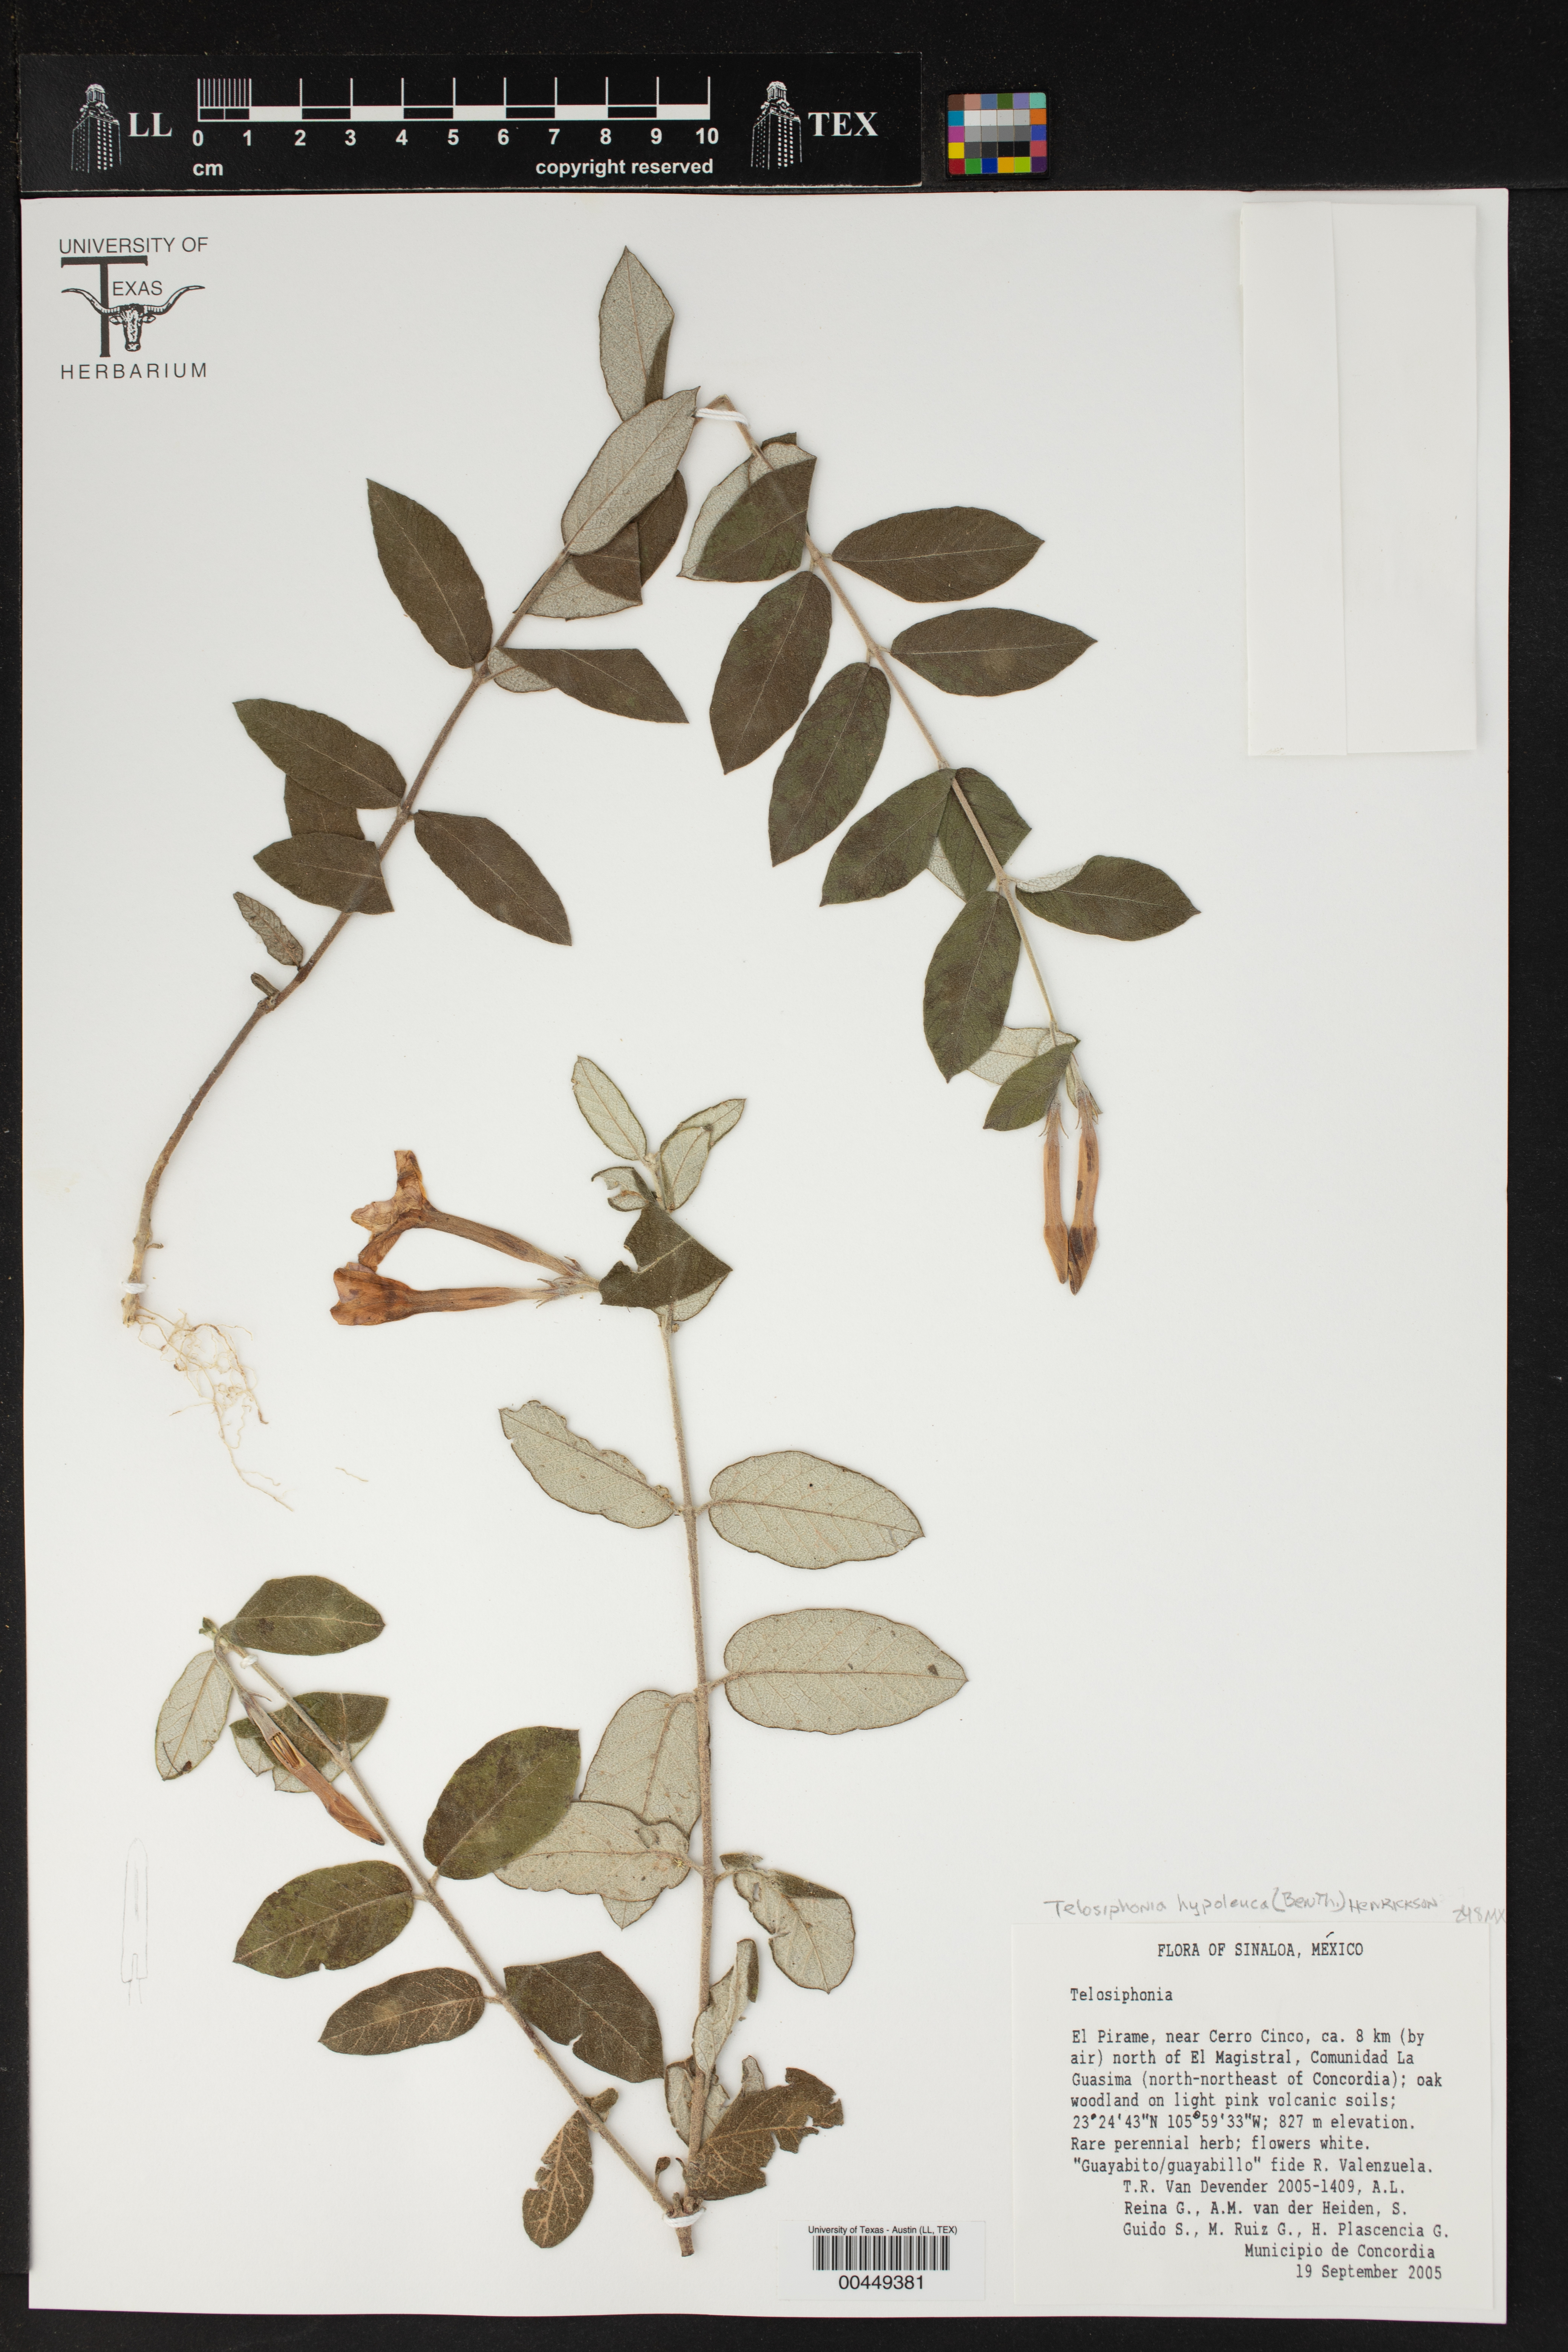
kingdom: Plantae
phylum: Tracheophyta
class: Magnoliopsida
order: Gentianales
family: Apocynaceae
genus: Mandevilla
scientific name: Mandevilla hypoleuca
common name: Davis mountain rocktrumpet
